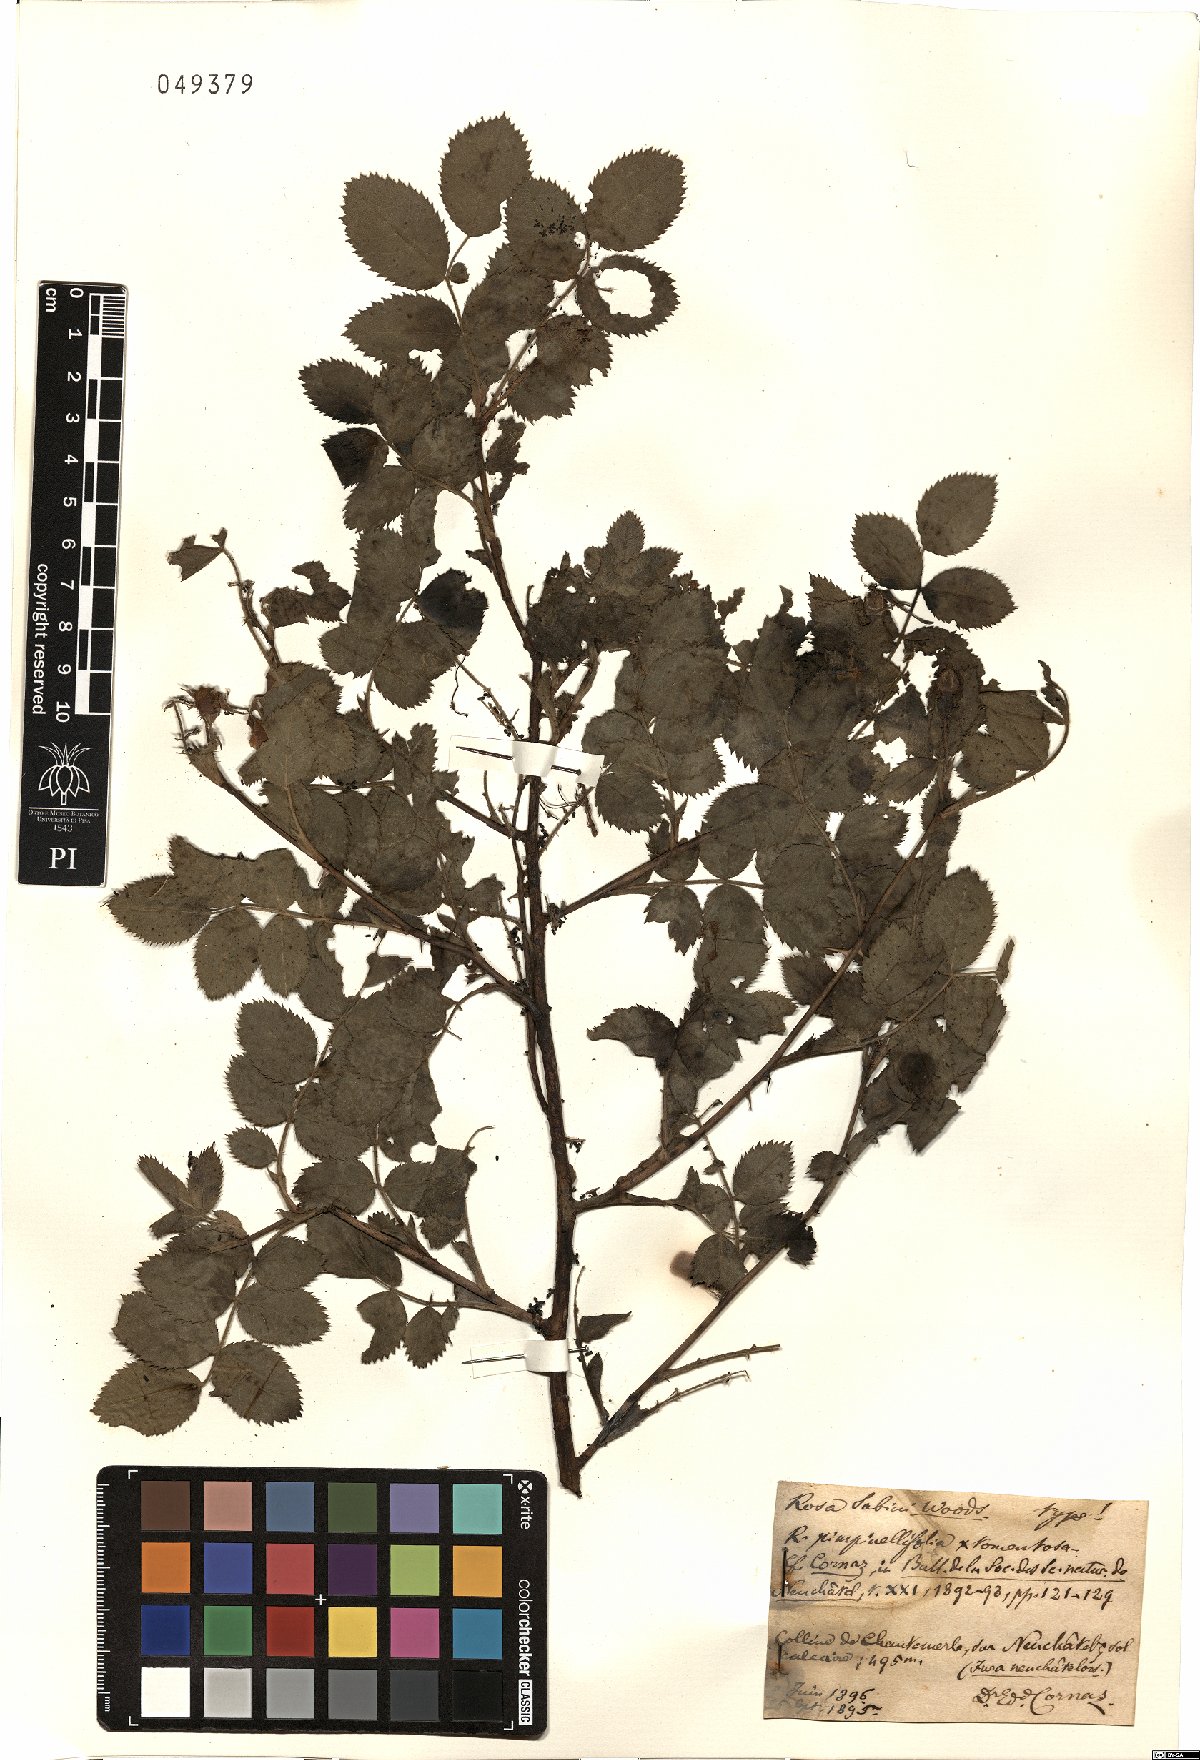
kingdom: Plantae
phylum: Tracheophyta
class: Magnoliopsida
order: Rosales
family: Rosaceae
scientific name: Rosaceae
